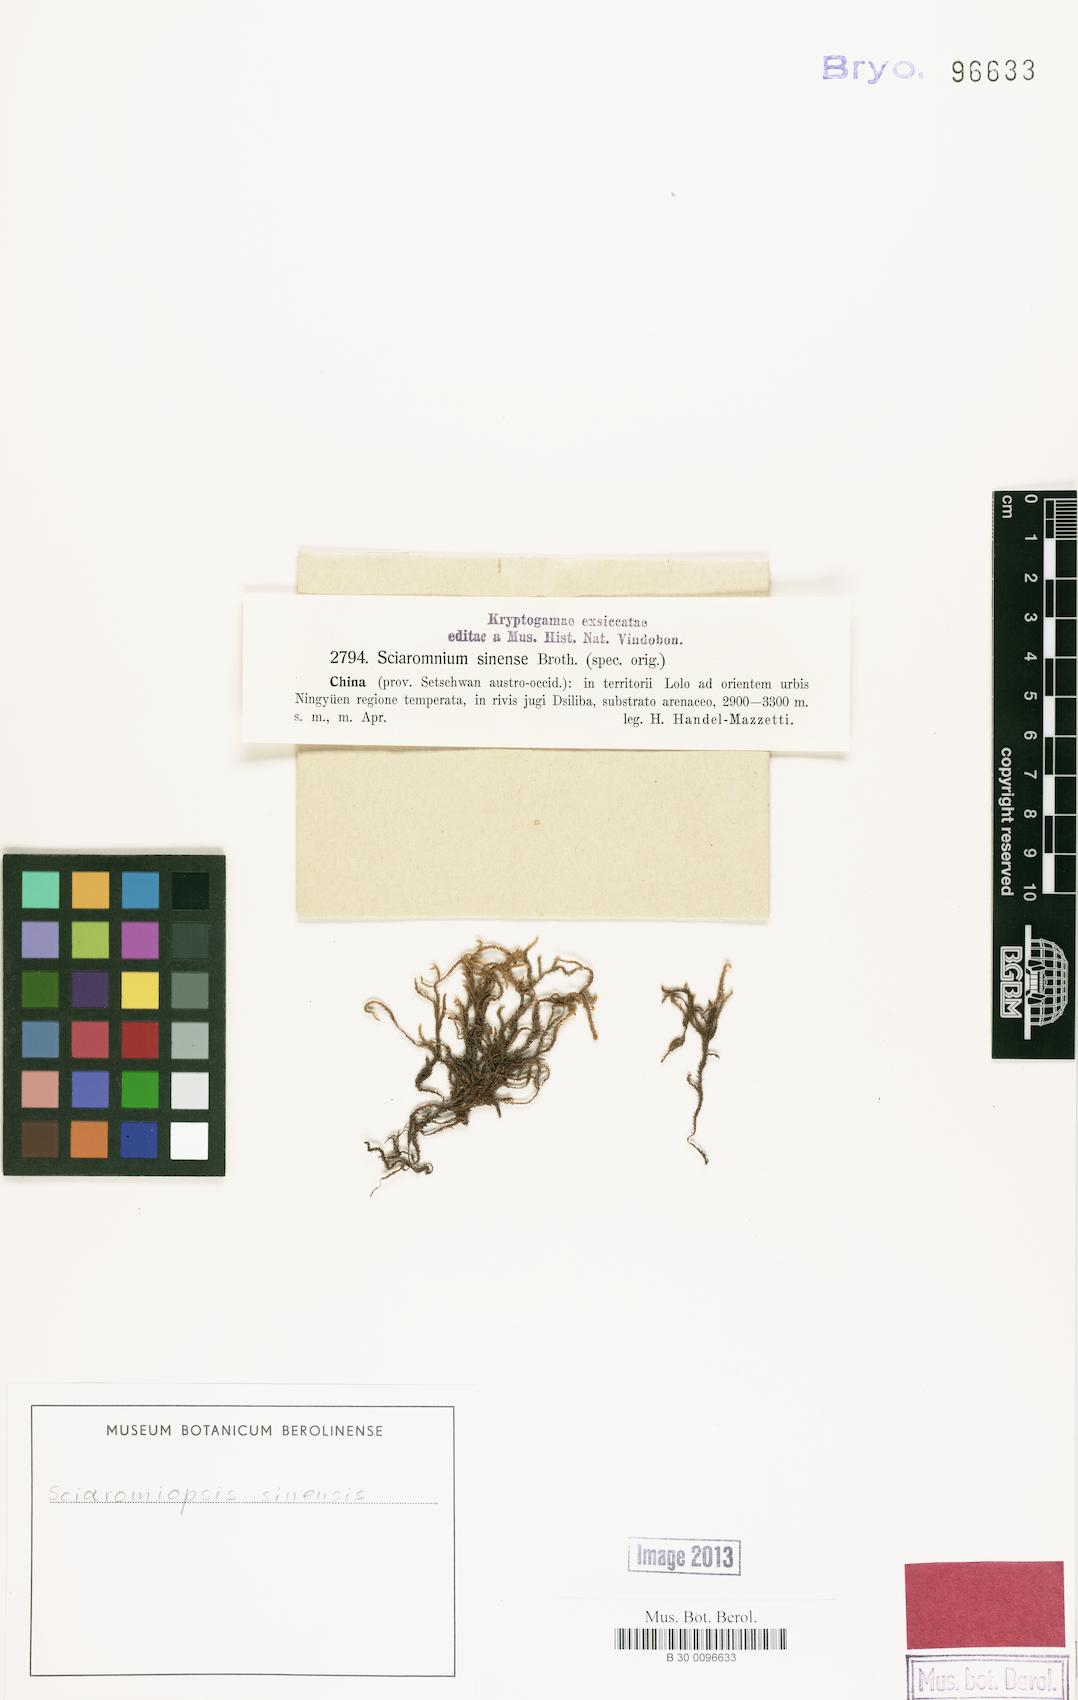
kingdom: Plantae
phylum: Bryophyta
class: Bryopsida
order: Hypnales
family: Brachytheciaceae
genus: Brachythecium
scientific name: Brachythecium sinense
